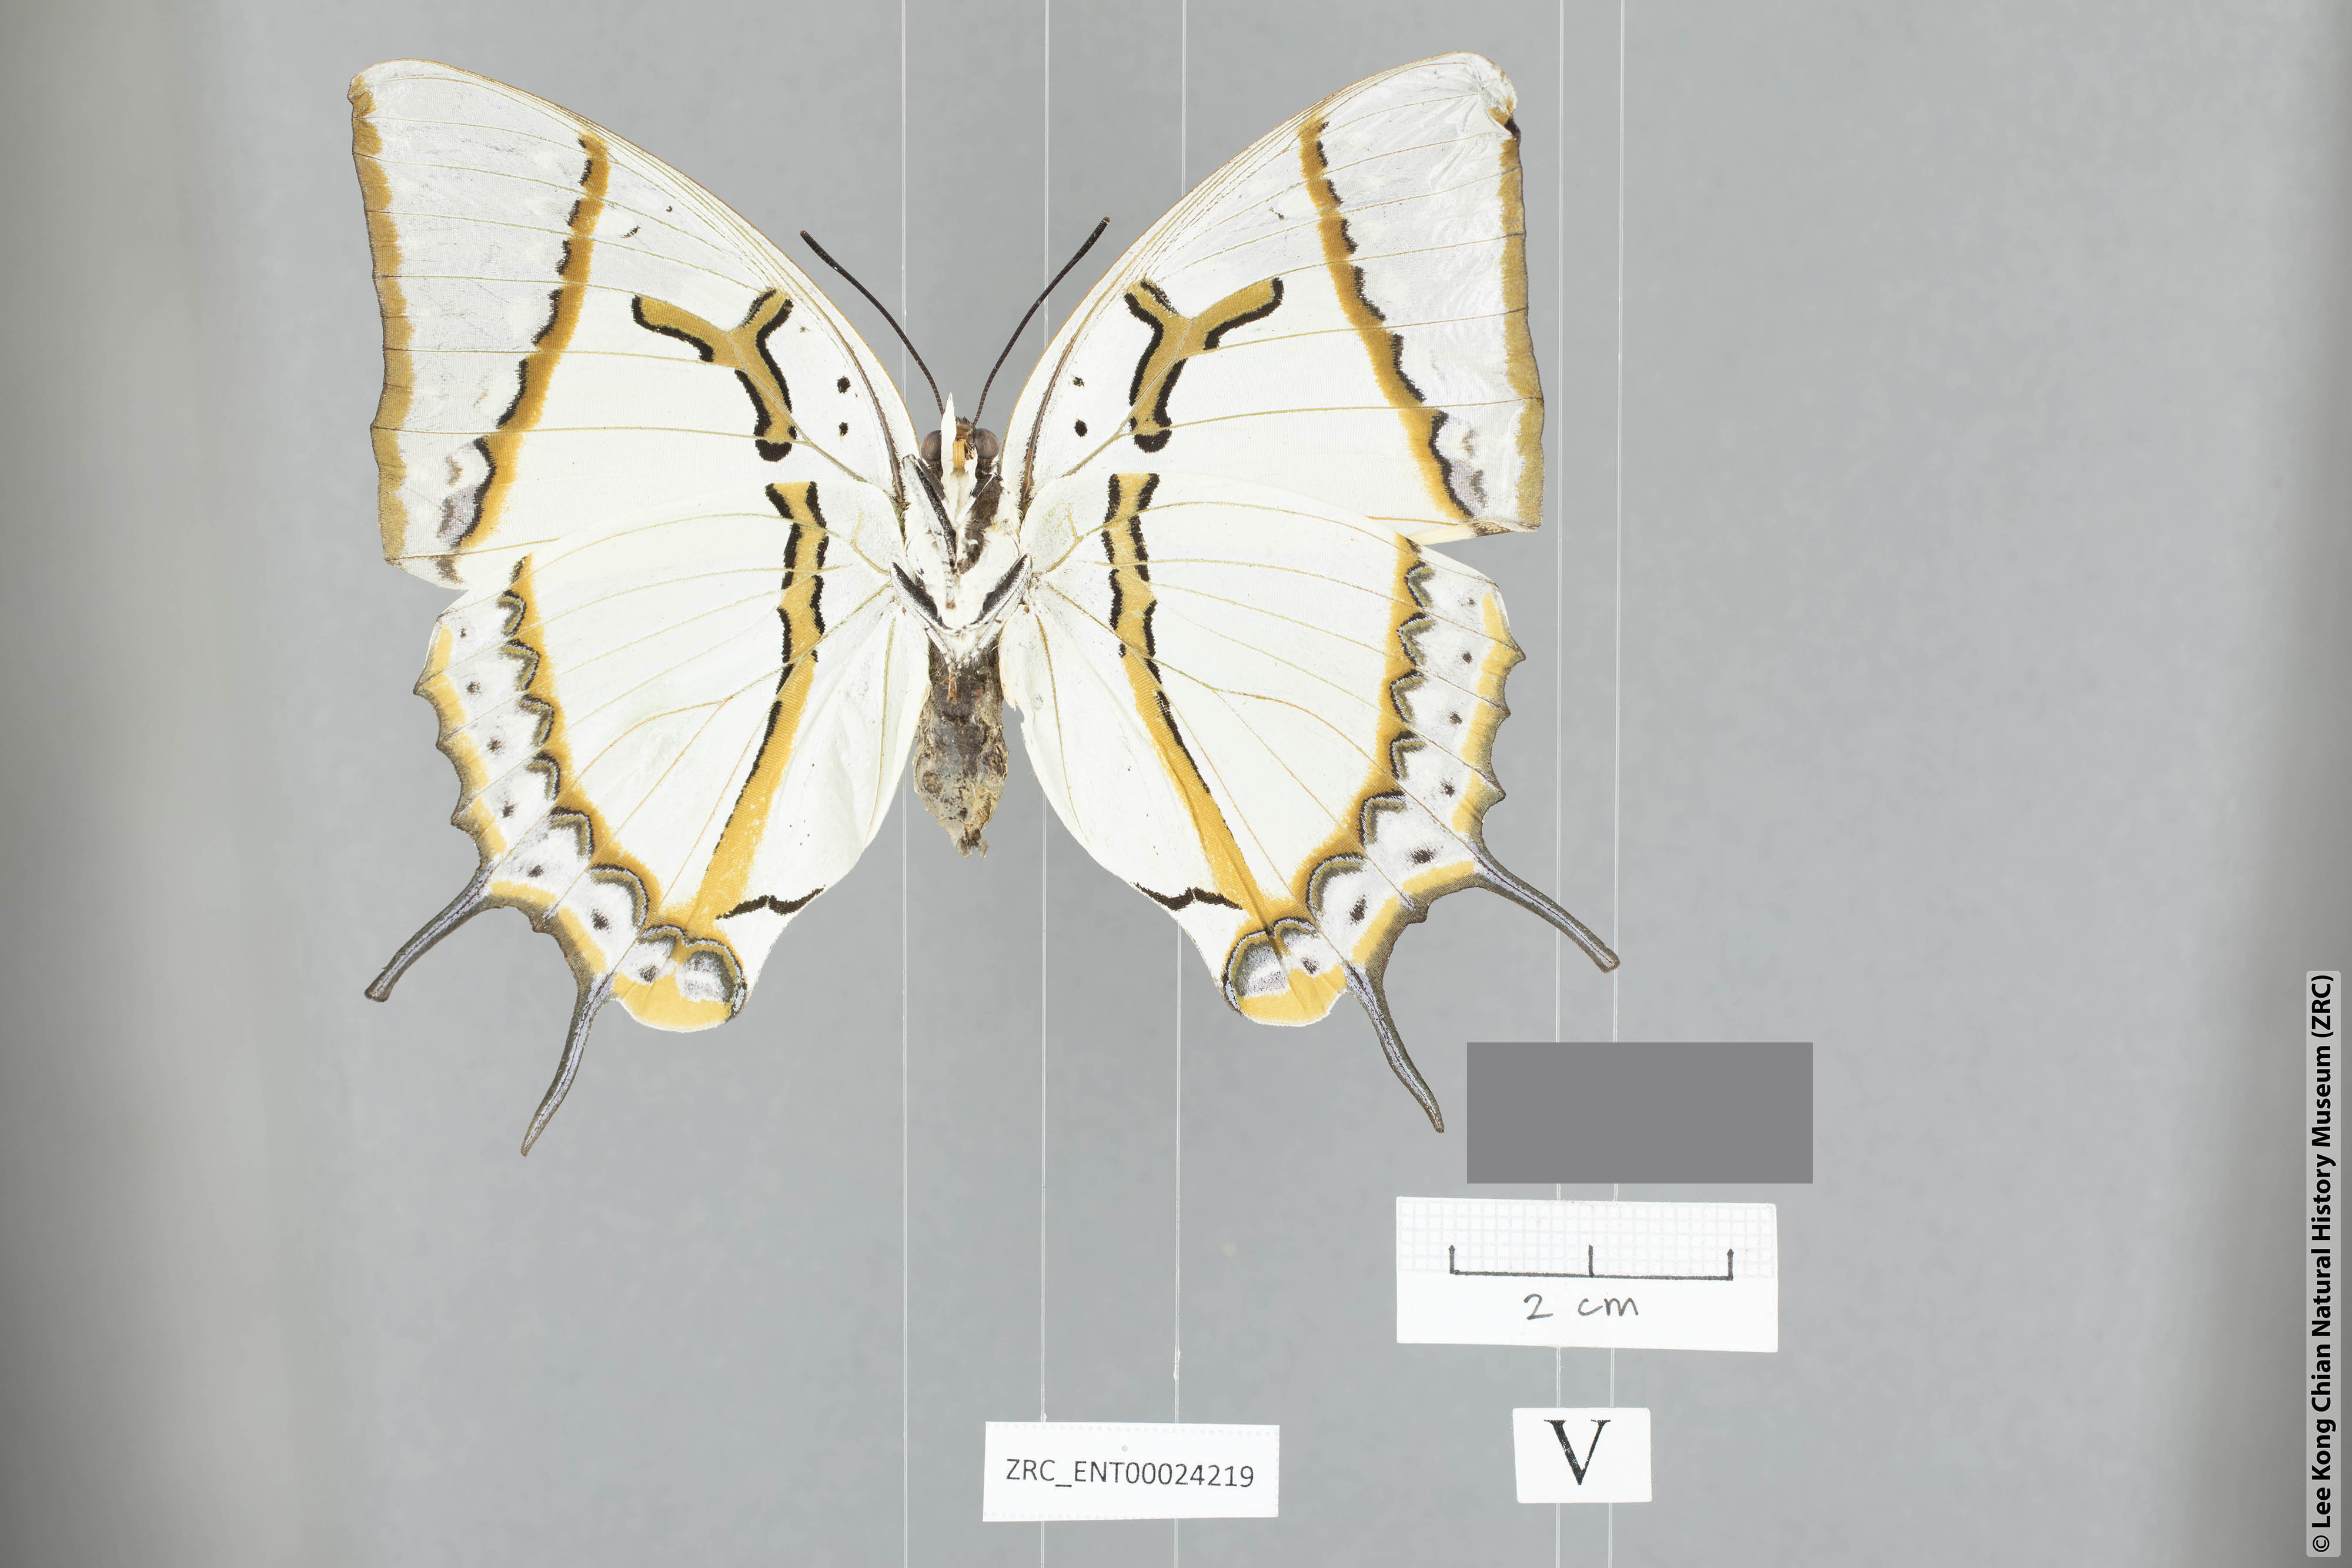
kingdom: Animalia
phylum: Arthropoda
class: Insecta
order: Lepidoptera
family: Nymphalidae
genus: Polyura
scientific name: Polyura eudamippus
